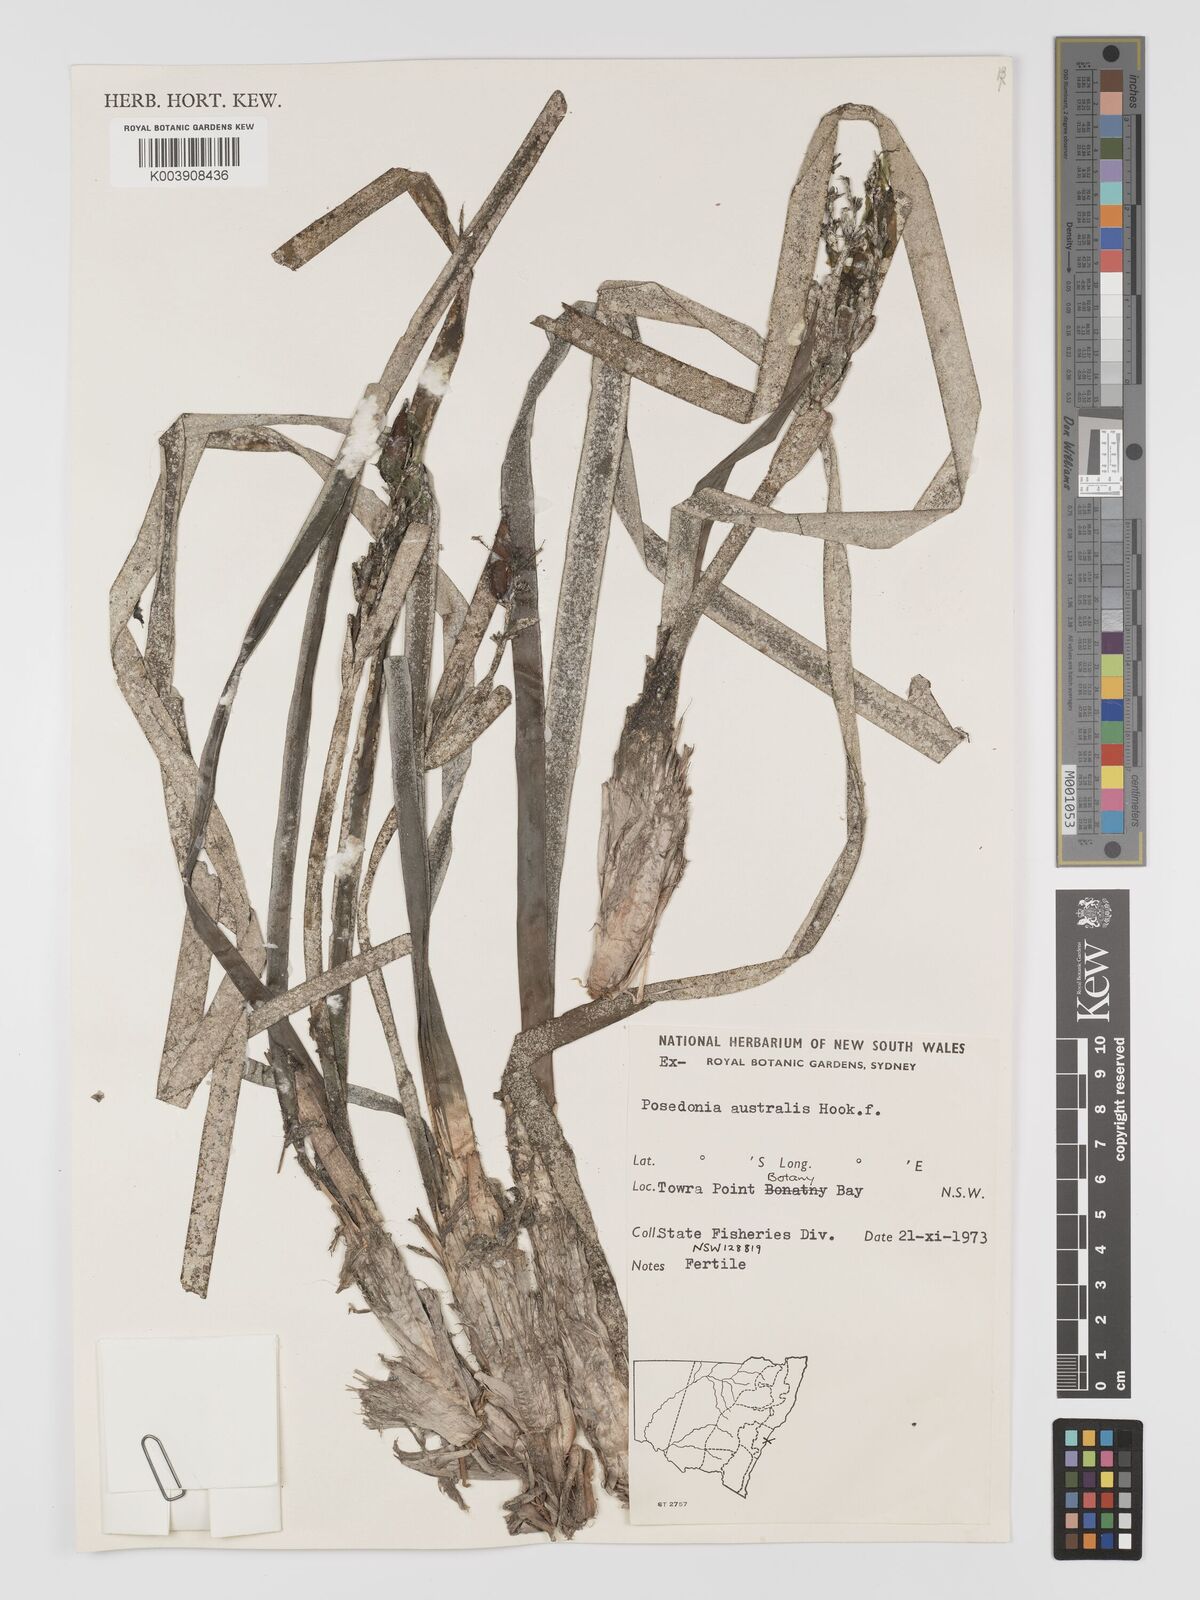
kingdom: Plantae
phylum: Tracheophyta
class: Liliopsida
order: Alismatales
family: Posidoniaceae
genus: Posidonia
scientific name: Posidonia australis
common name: Species code: pa
